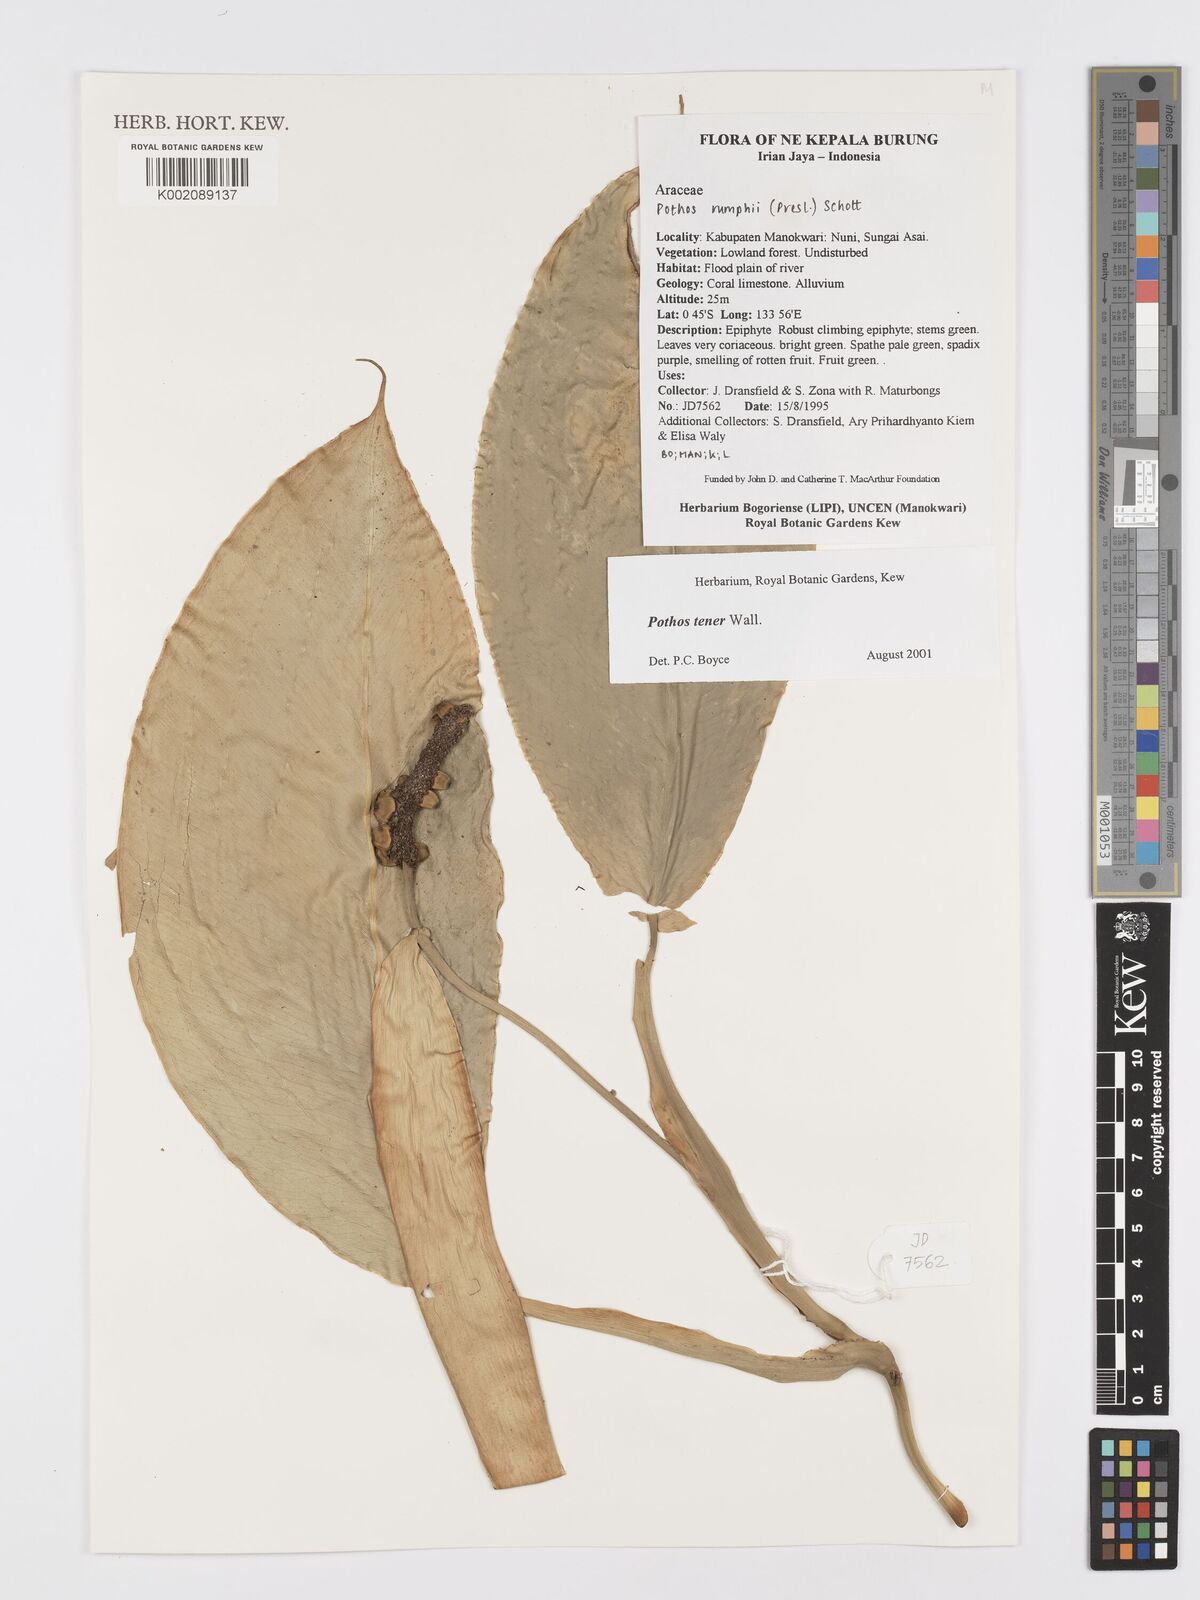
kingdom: Plantae
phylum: Tracheophyta
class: Liliopsida
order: Alismatales
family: Araceae
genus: Pothos
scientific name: Pothos tener
